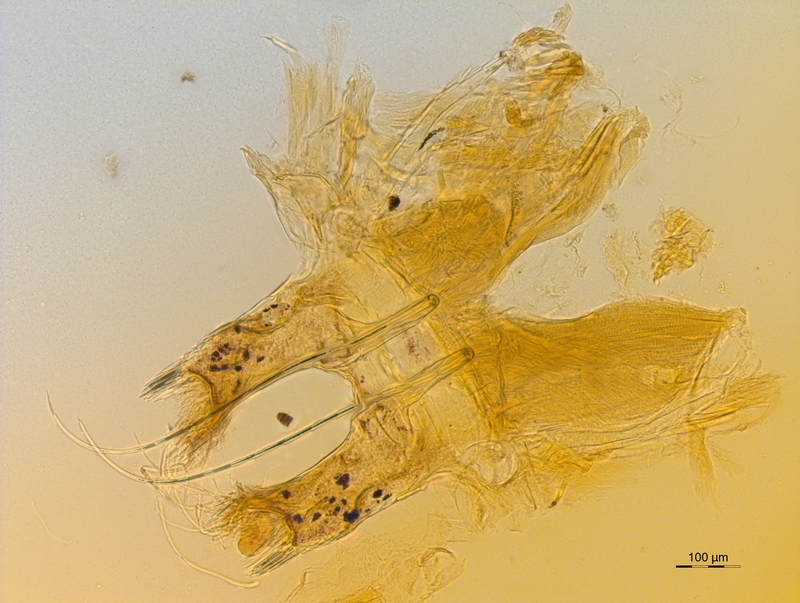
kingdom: Animalia
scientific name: Animalia
